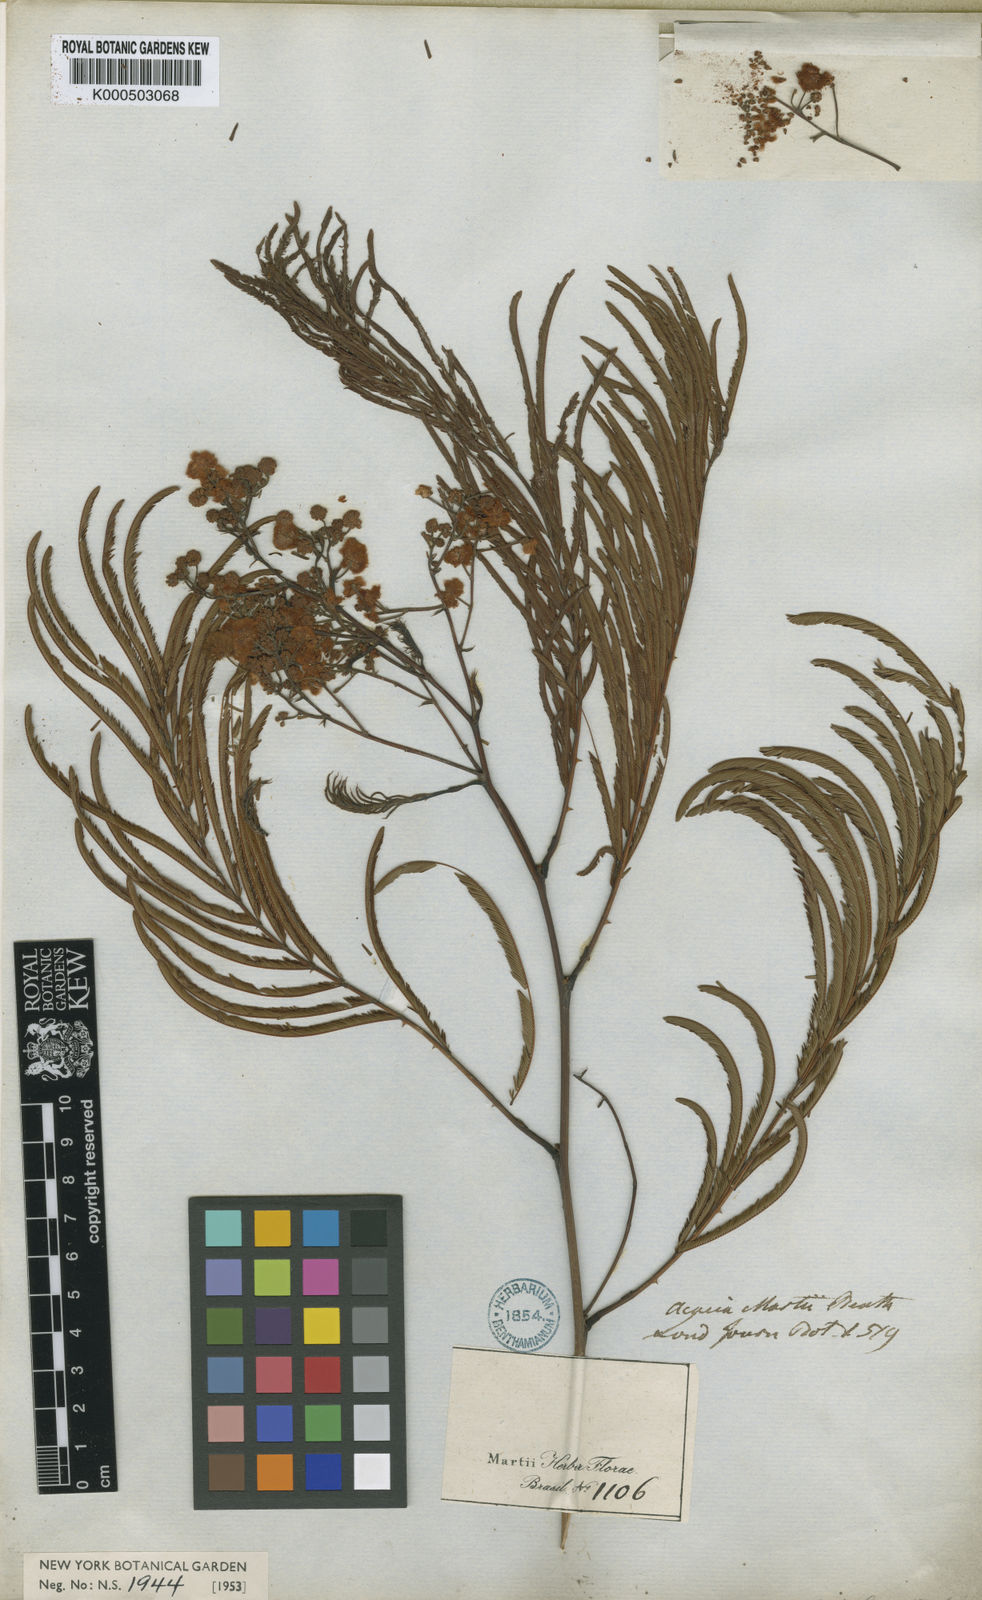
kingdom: Plantae
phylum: Tracheophyta
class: Magnoliopsida
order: Fabales
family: Fabaceae
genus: Senegalia
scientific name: Senegalia martii
